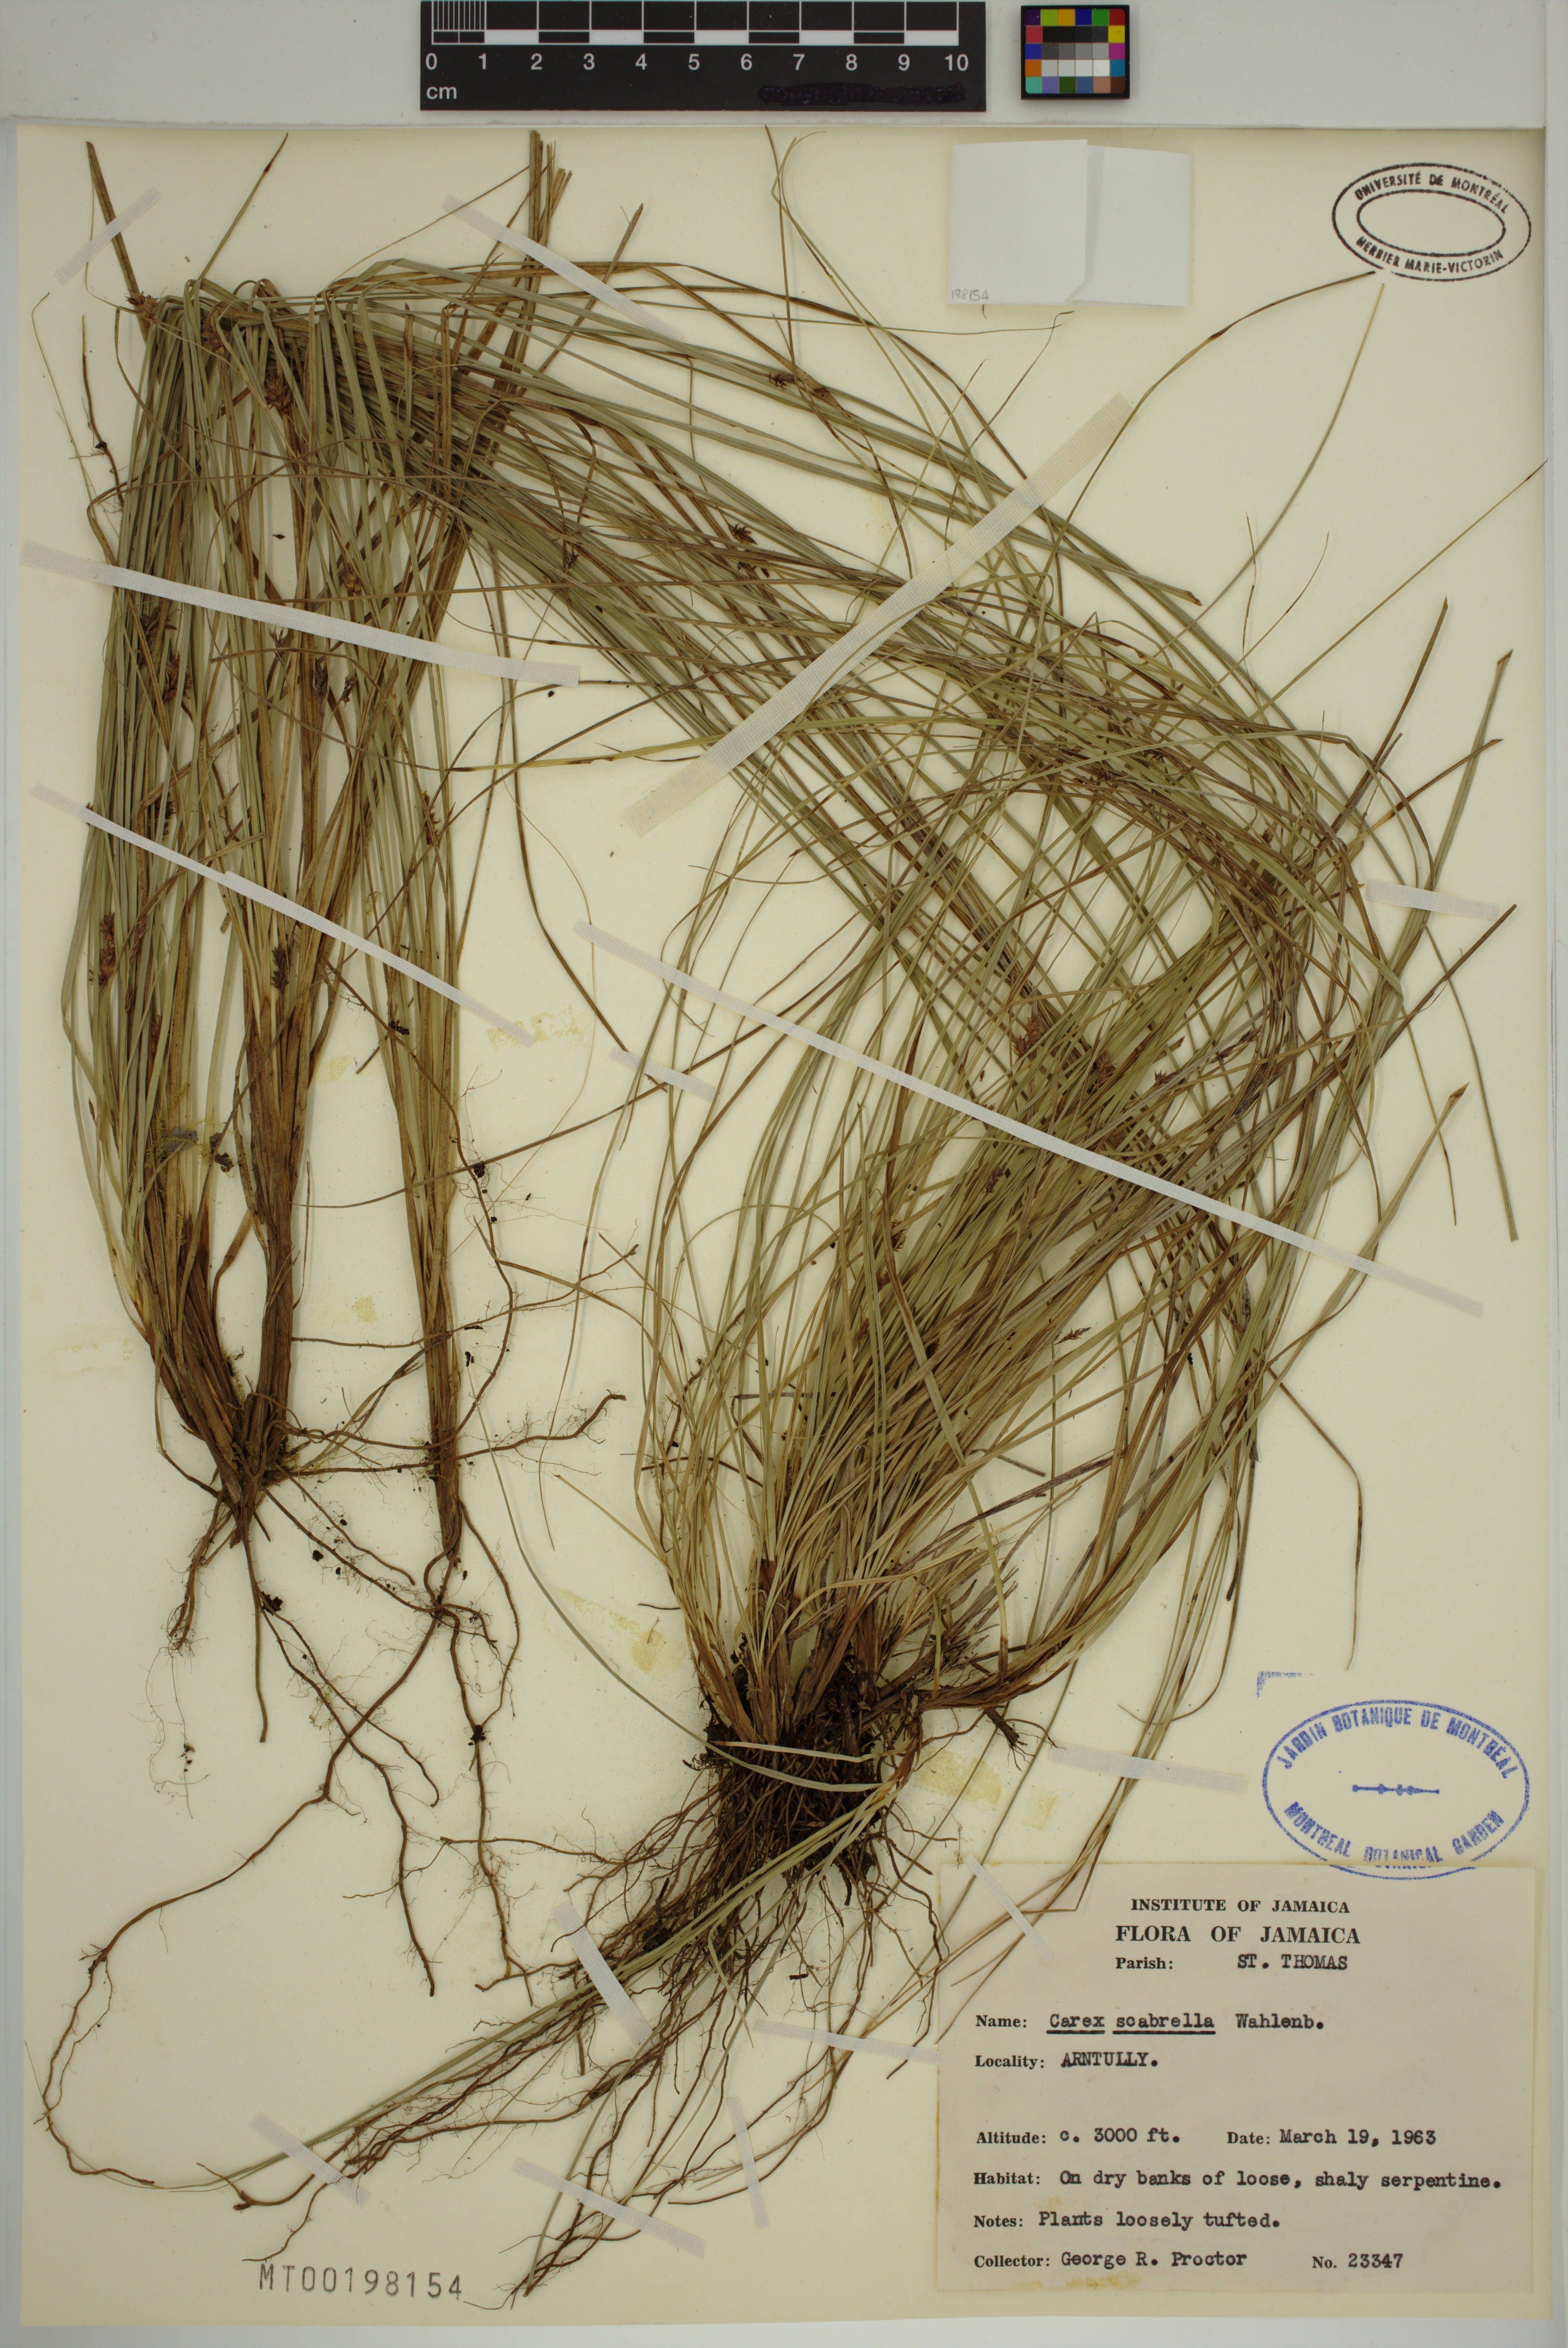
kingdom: Plantae
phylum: Tracheophyta
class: Liliopsida
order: Poales
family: Cyperaceae
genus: Carex
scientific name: Carex scabrella
